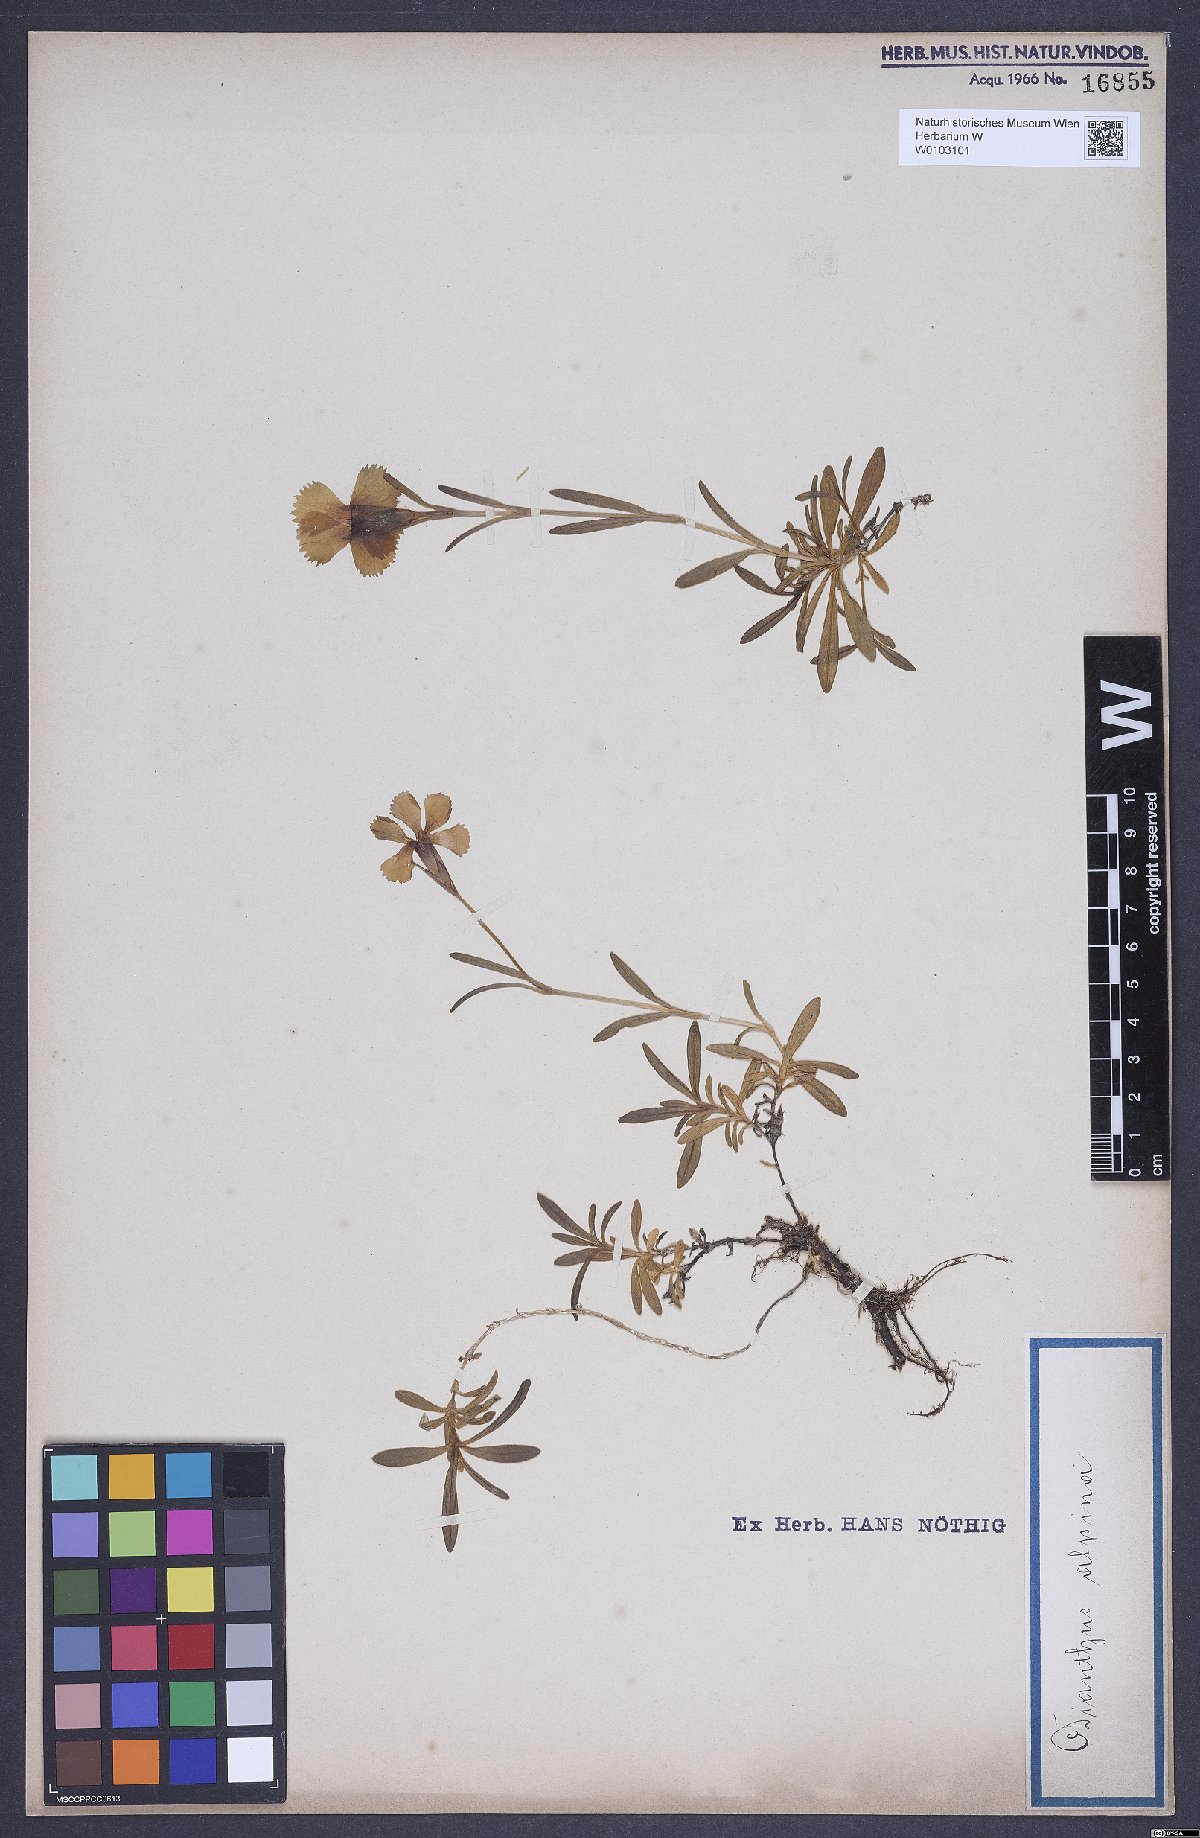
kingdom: Plantae
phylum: Tracheophyta
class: Magnoliopsida
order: Caryophyllales
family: Caryophyllaceae
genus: Dianthus
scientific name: Dianthus alpinus
